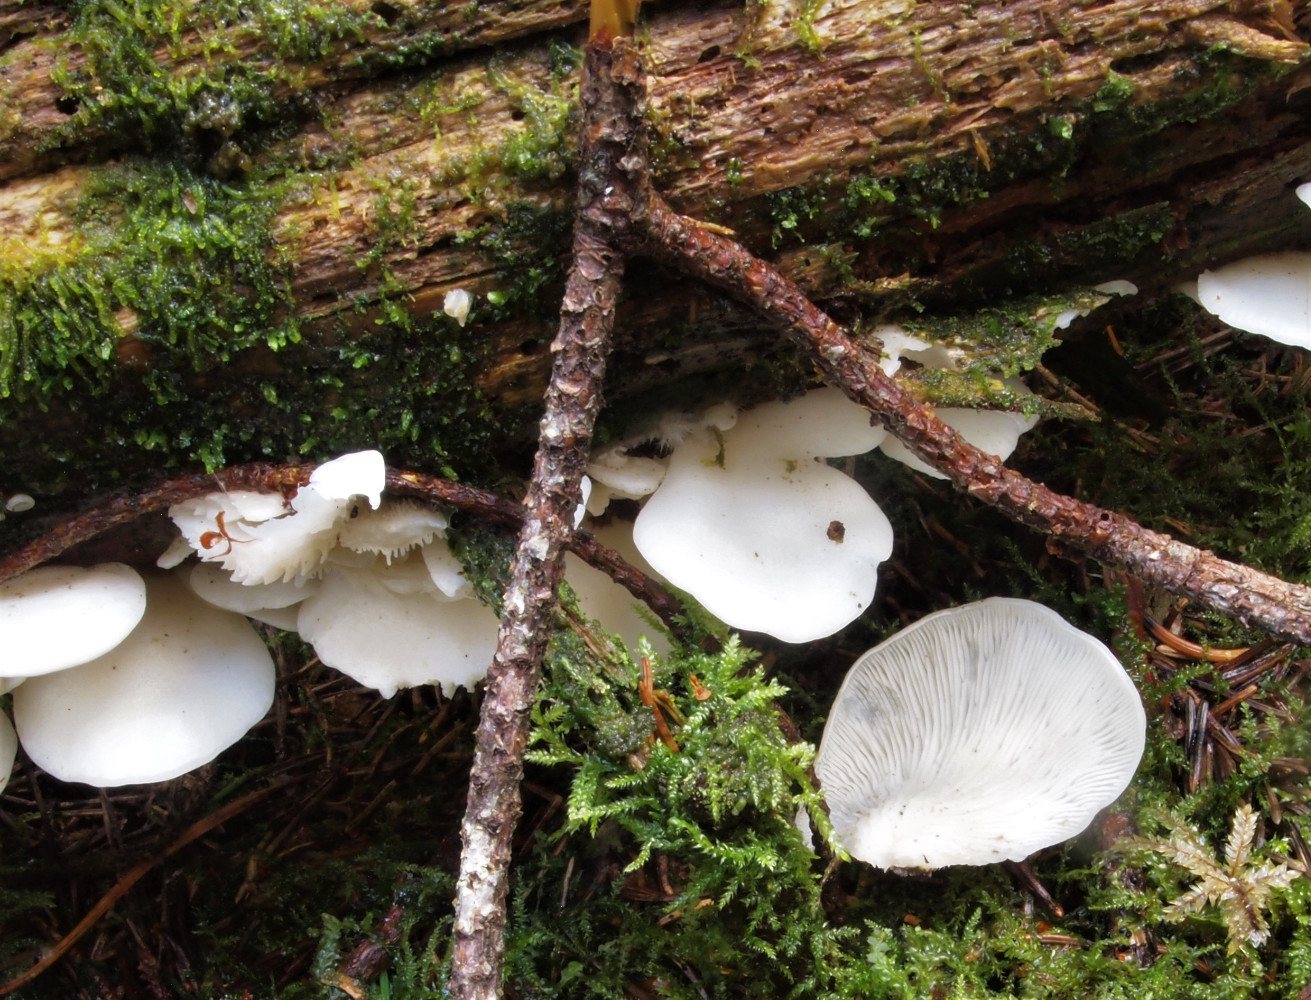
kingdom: Fungi
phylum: Basidiomycota
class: Agaricomycetes
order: Agaricales
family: Marasmiaceae
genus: Pleurocybella
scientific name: Pleurocybella porrigens
